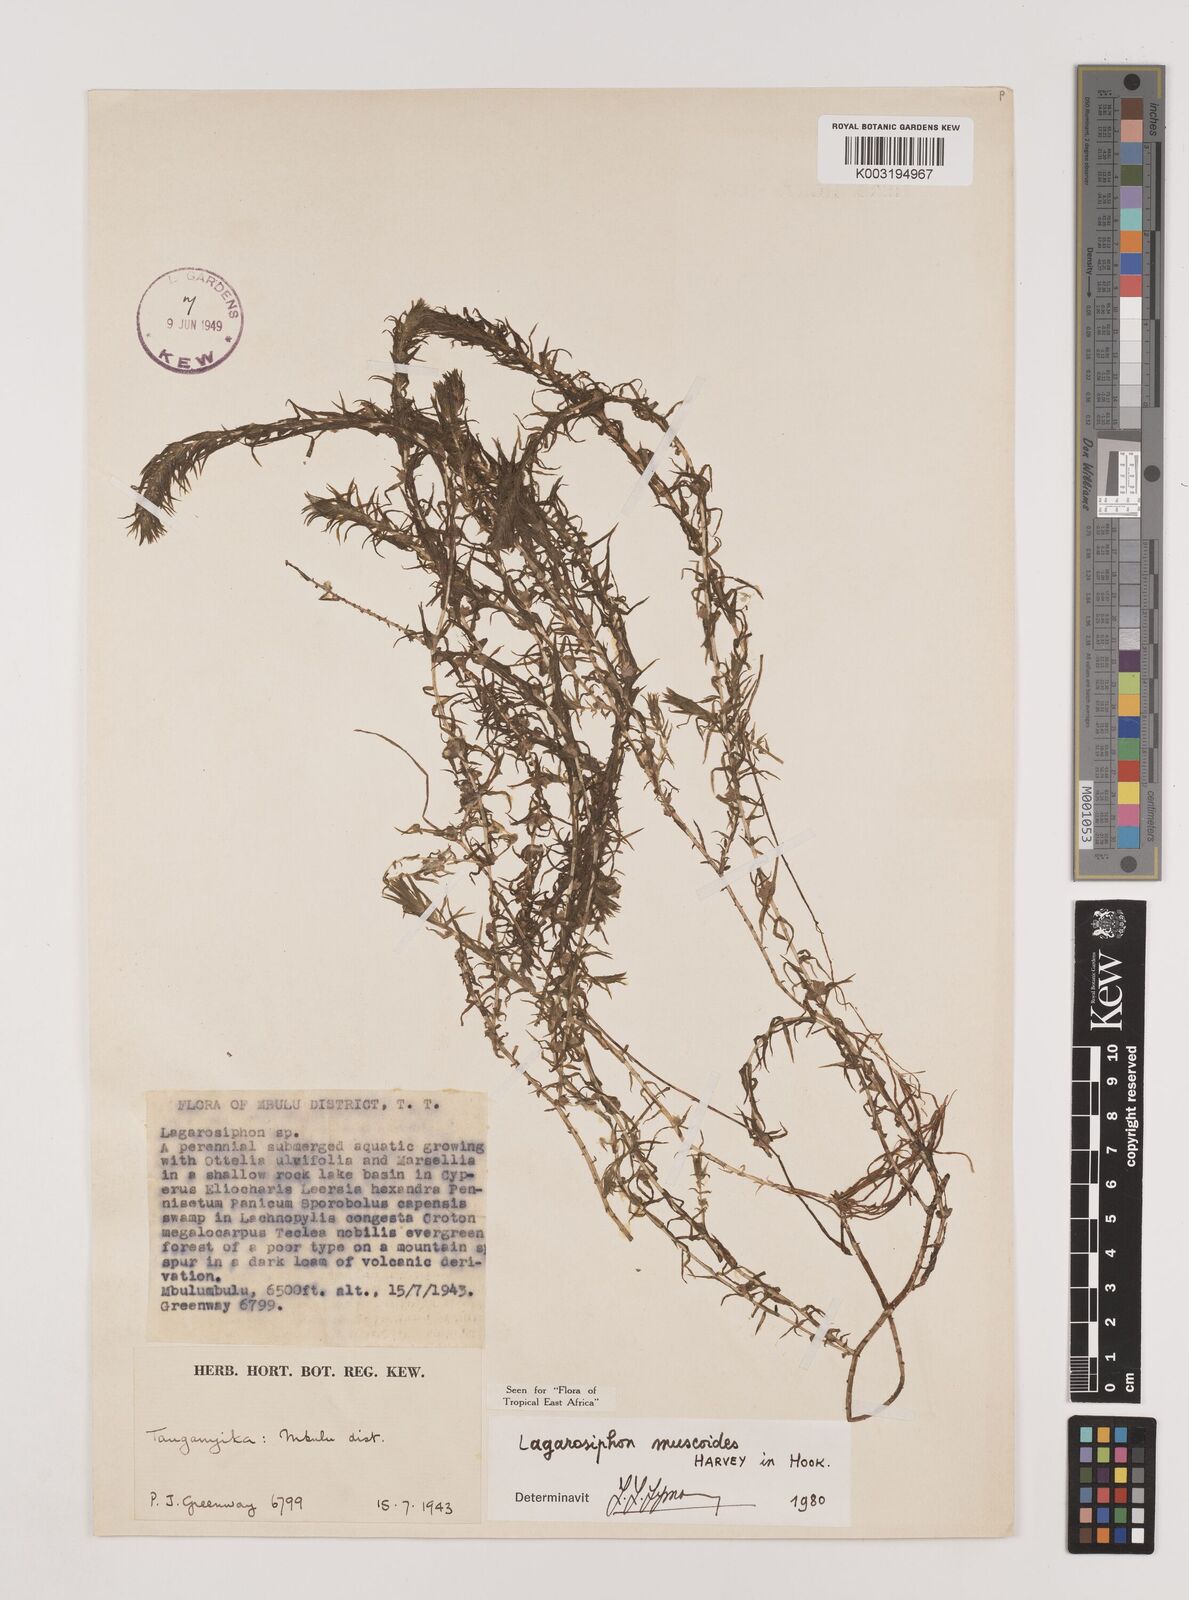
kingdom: Plantae
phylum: Tracheophyta
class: Liliopsida
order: Alismatales
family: Hydrocharitaceae
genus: Lagarosiphon
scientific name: Lagarosiphon muscoides
